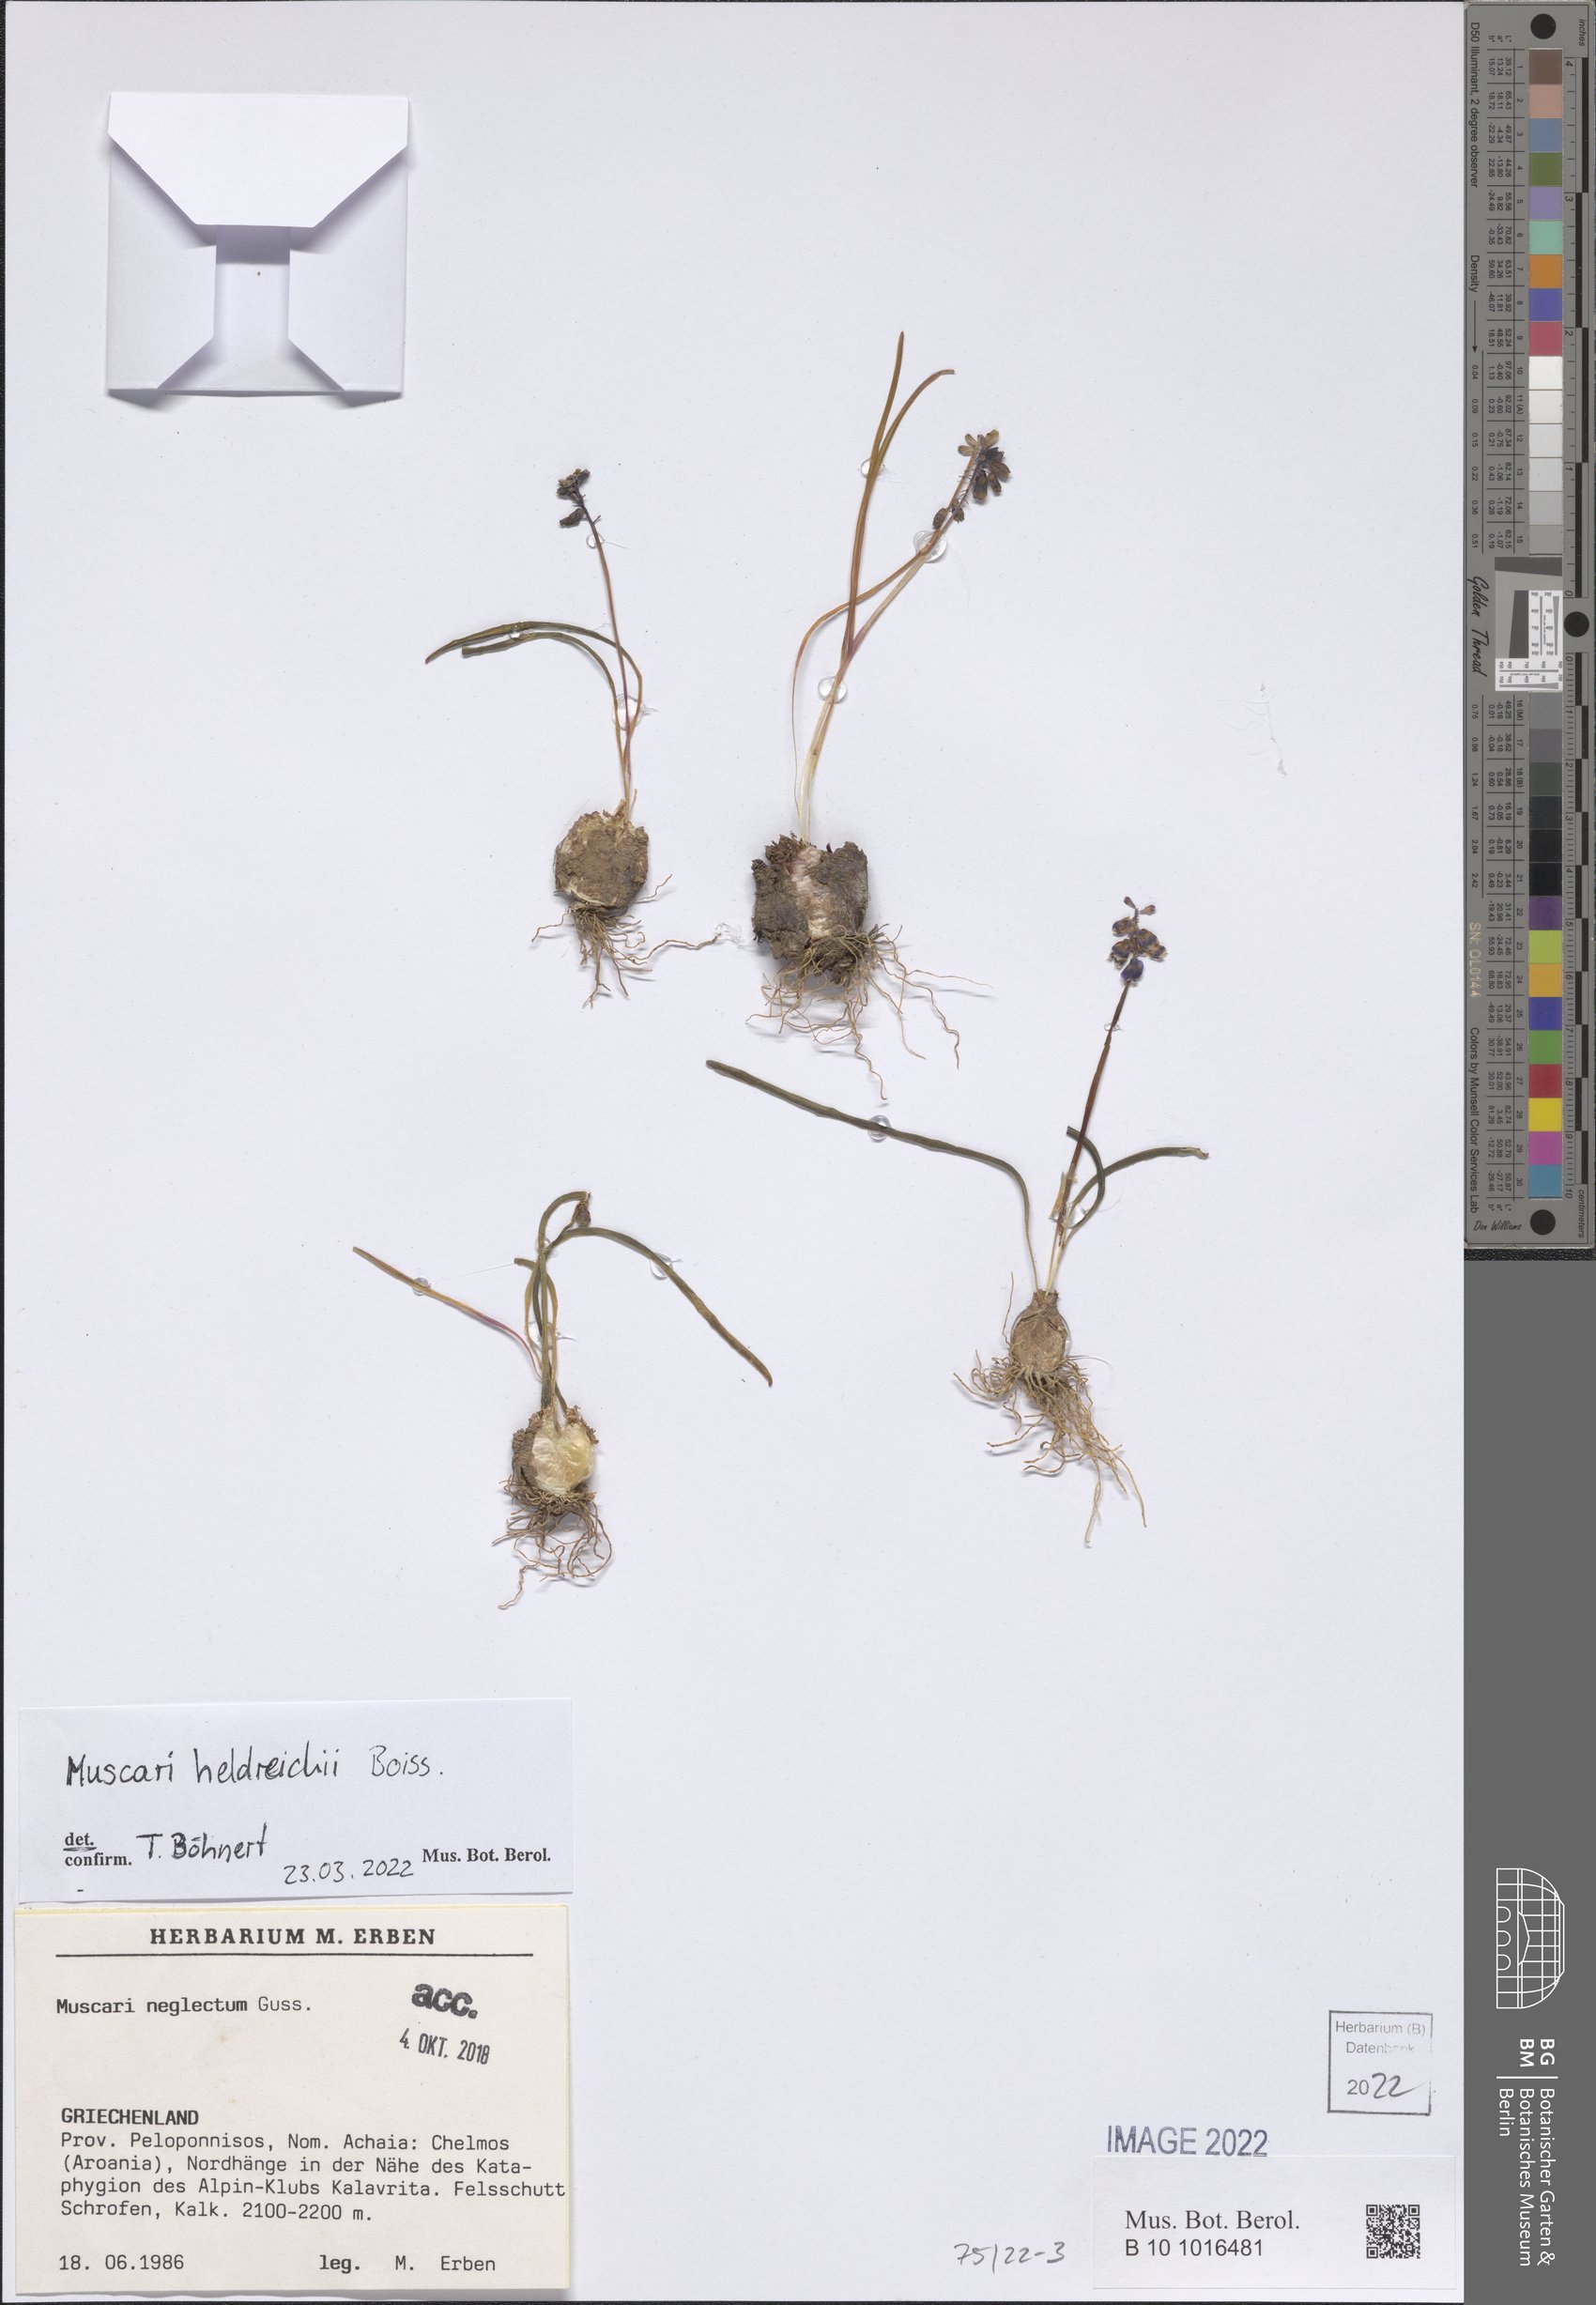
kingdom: Plantae
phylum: Tracheophyta
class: Liliopsida
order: Asparagales
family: Asparagaceae
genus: Muscari
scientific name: Muscari heldreichii
